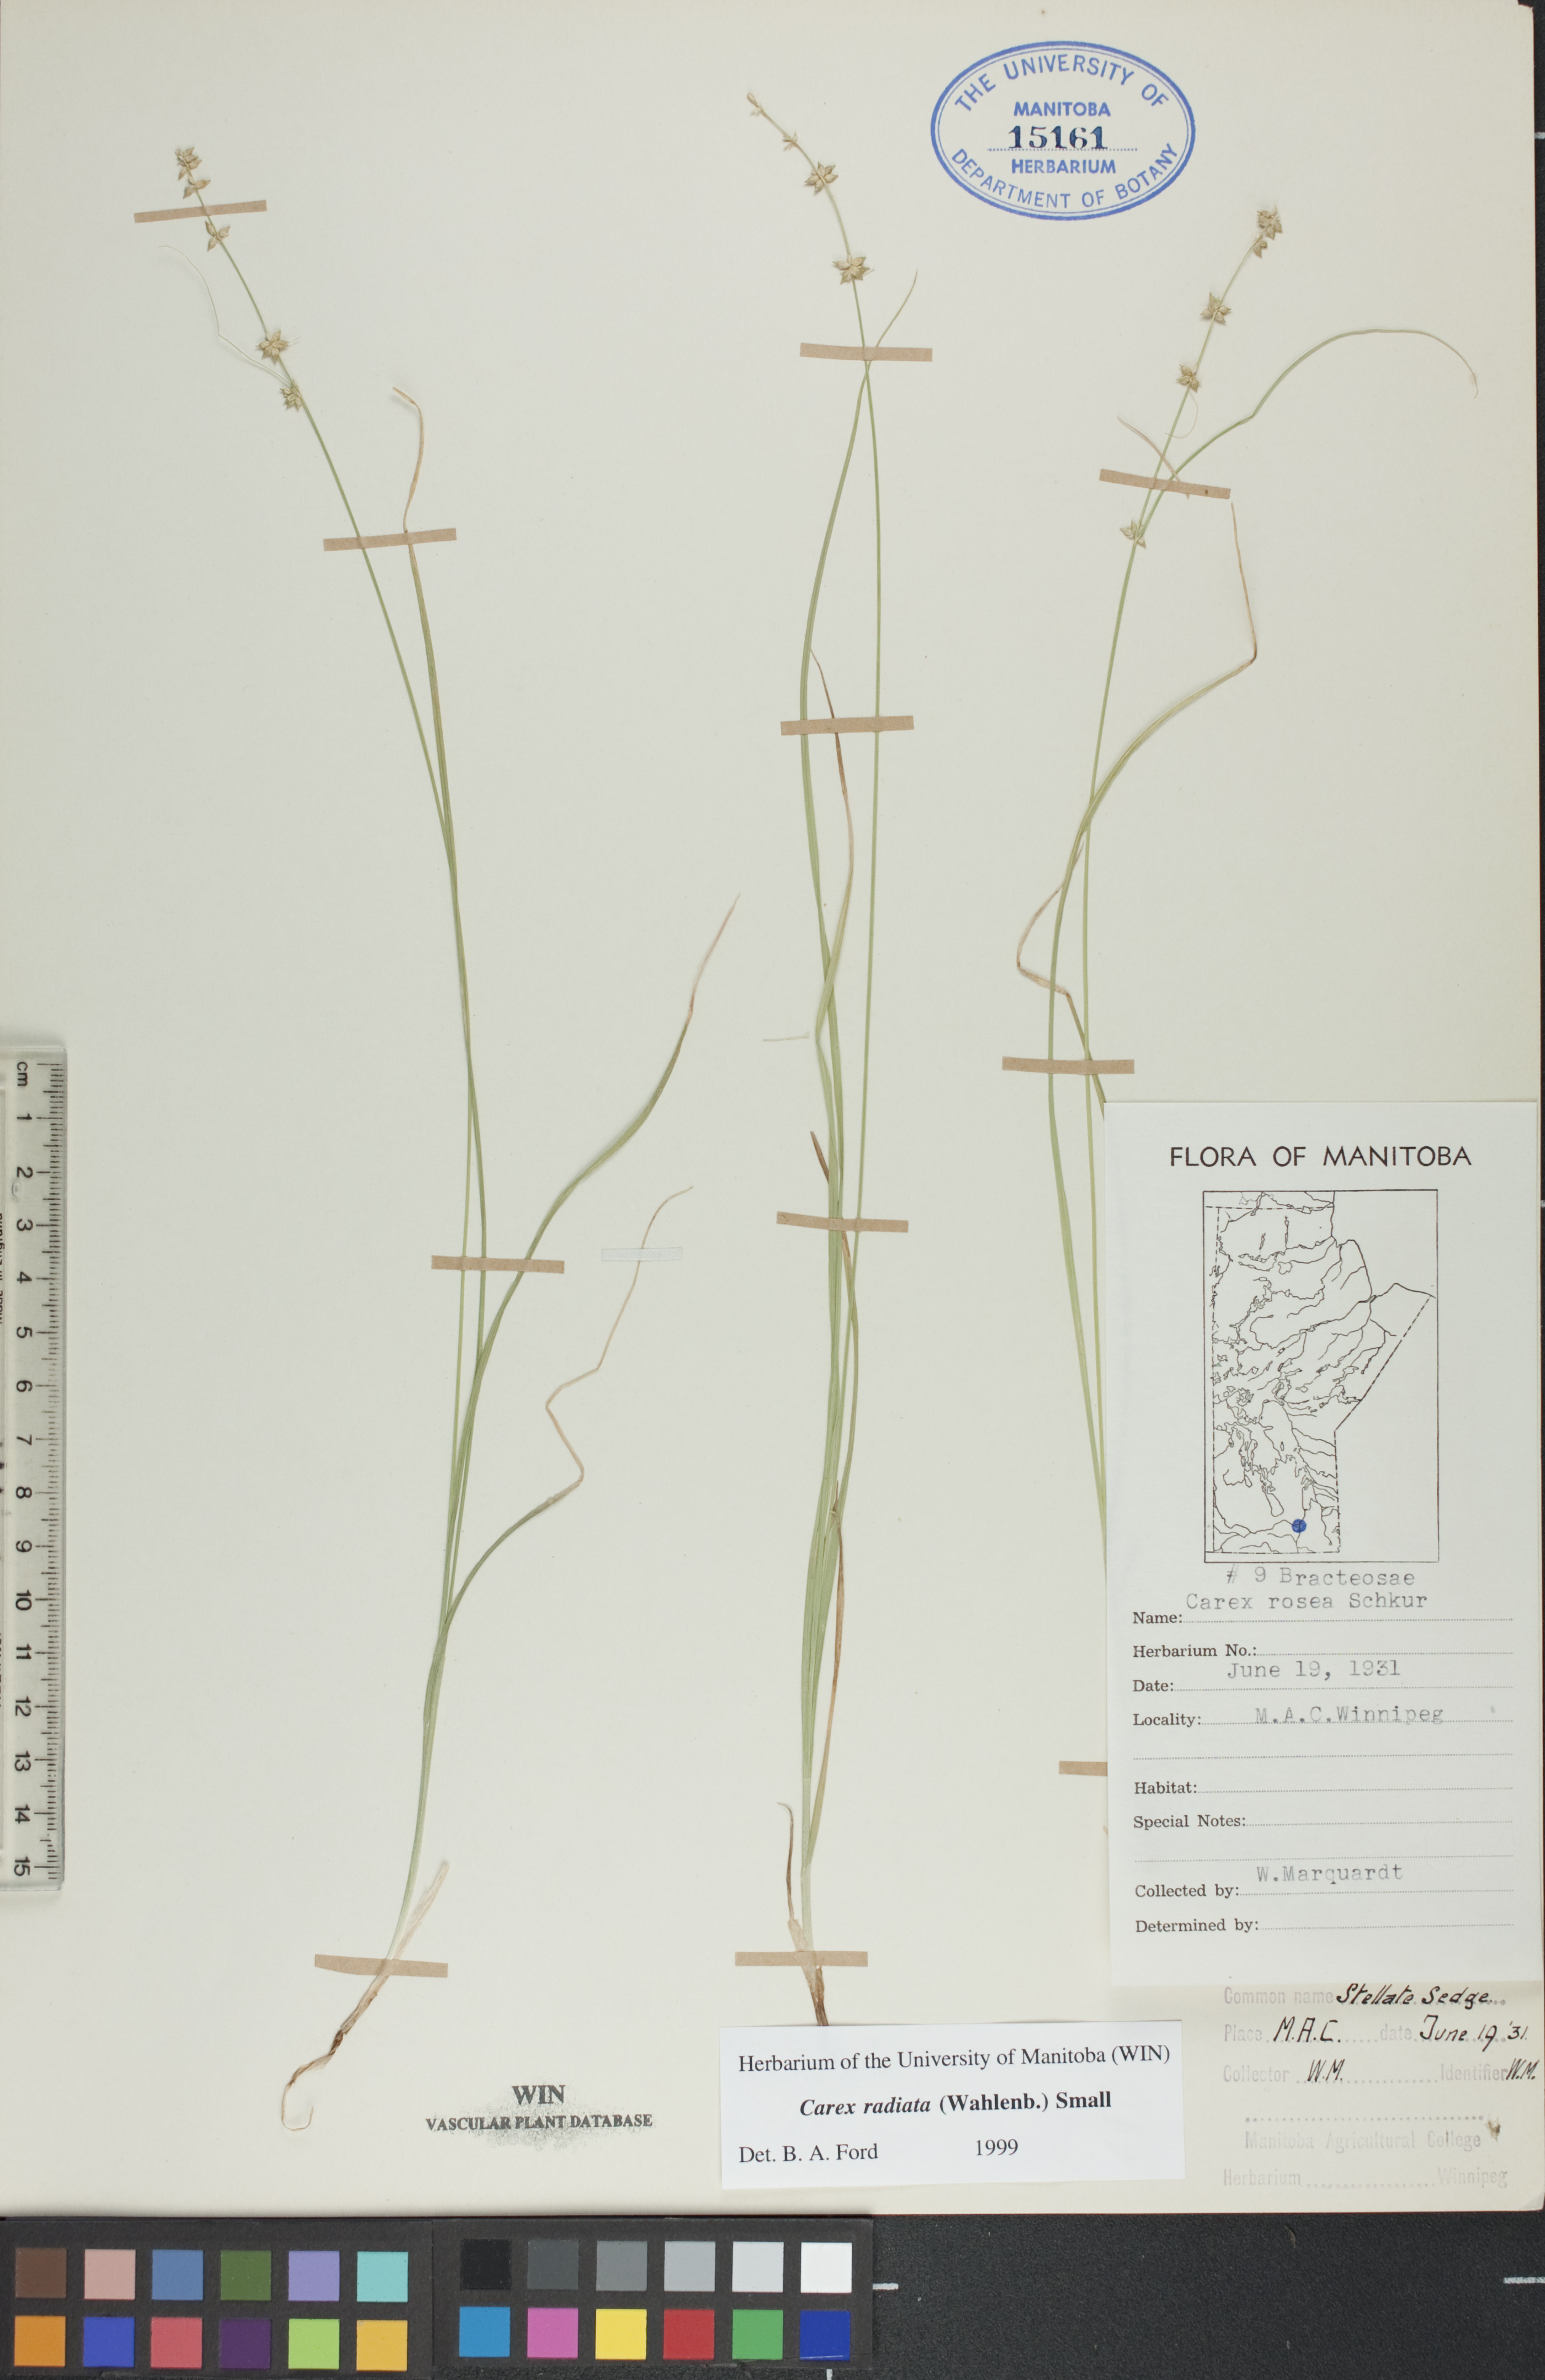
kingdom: Plantae
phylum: Tracheophyta
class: Liliopsida
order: Poales
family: Cyperaceae
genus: Carex
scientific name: Carex radiata
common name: Eastern star sedge
